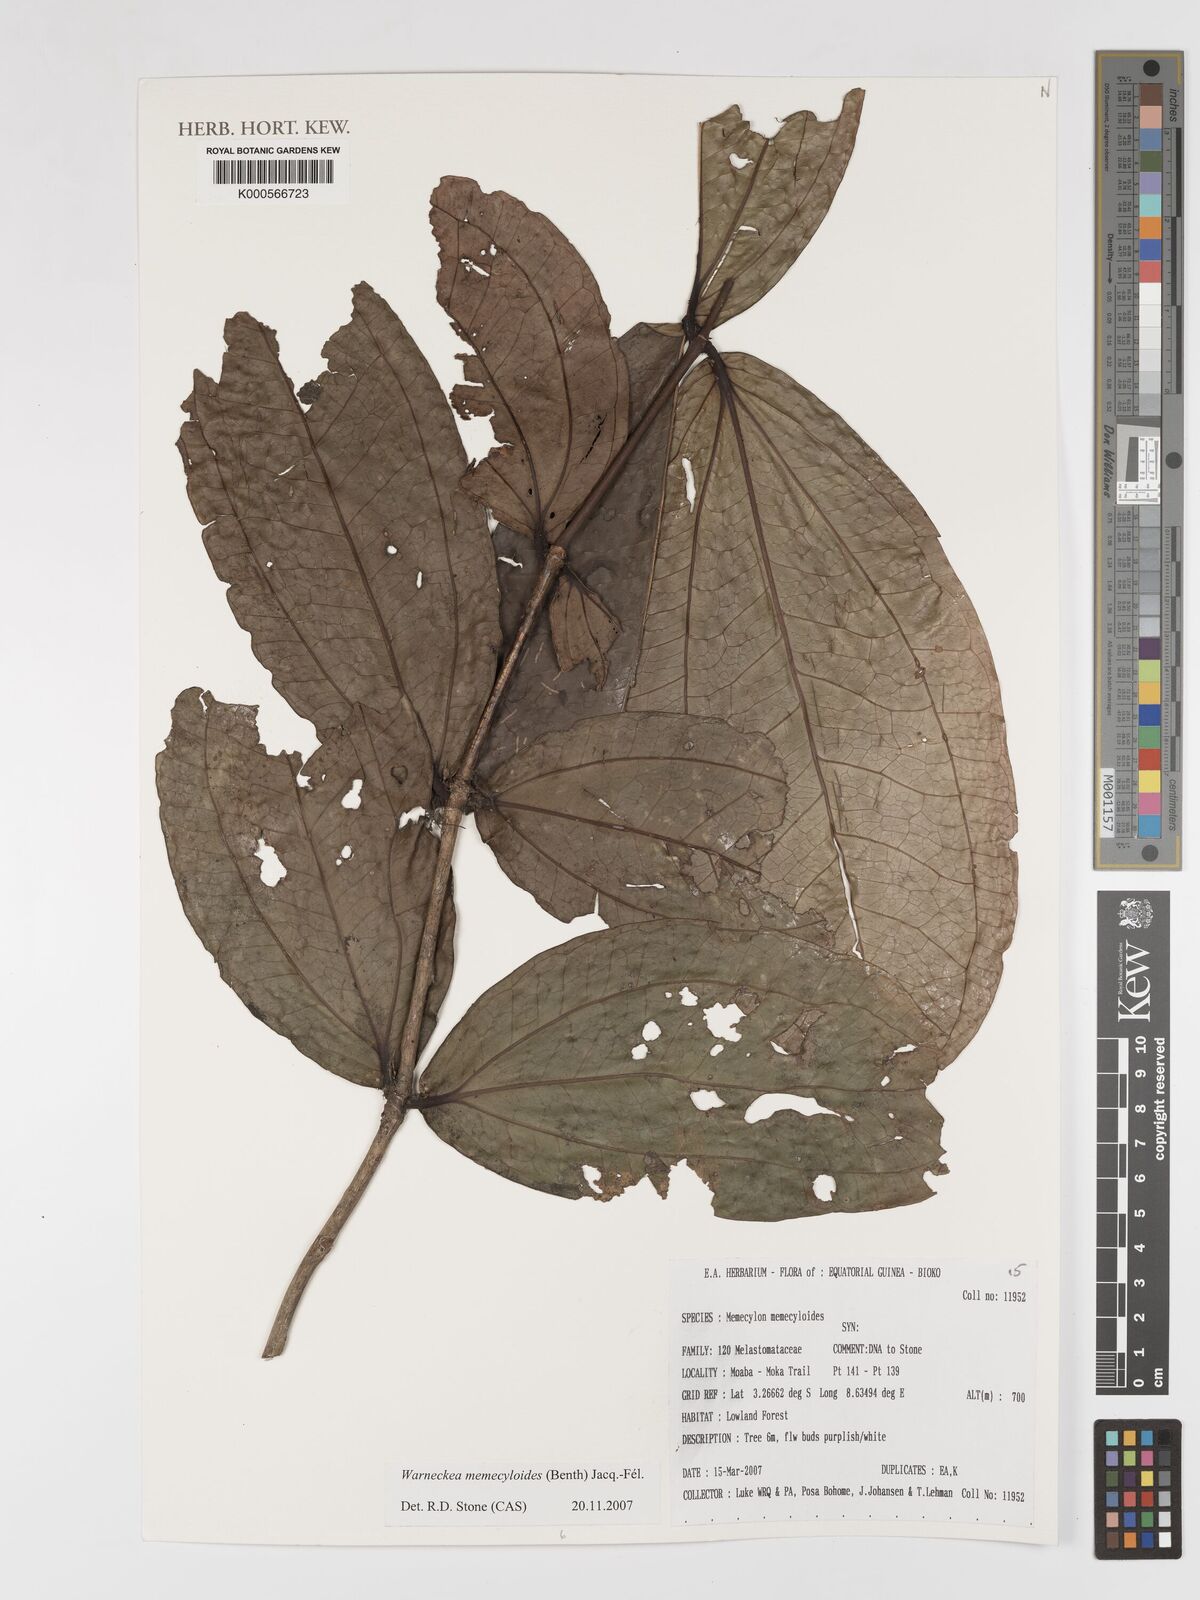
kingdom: Plantae
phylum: Tracheophyta
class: Magnoliopsida
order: Myrtales
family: Melastomataceae
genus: Warneckea
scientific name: Warneckea memecyloides
